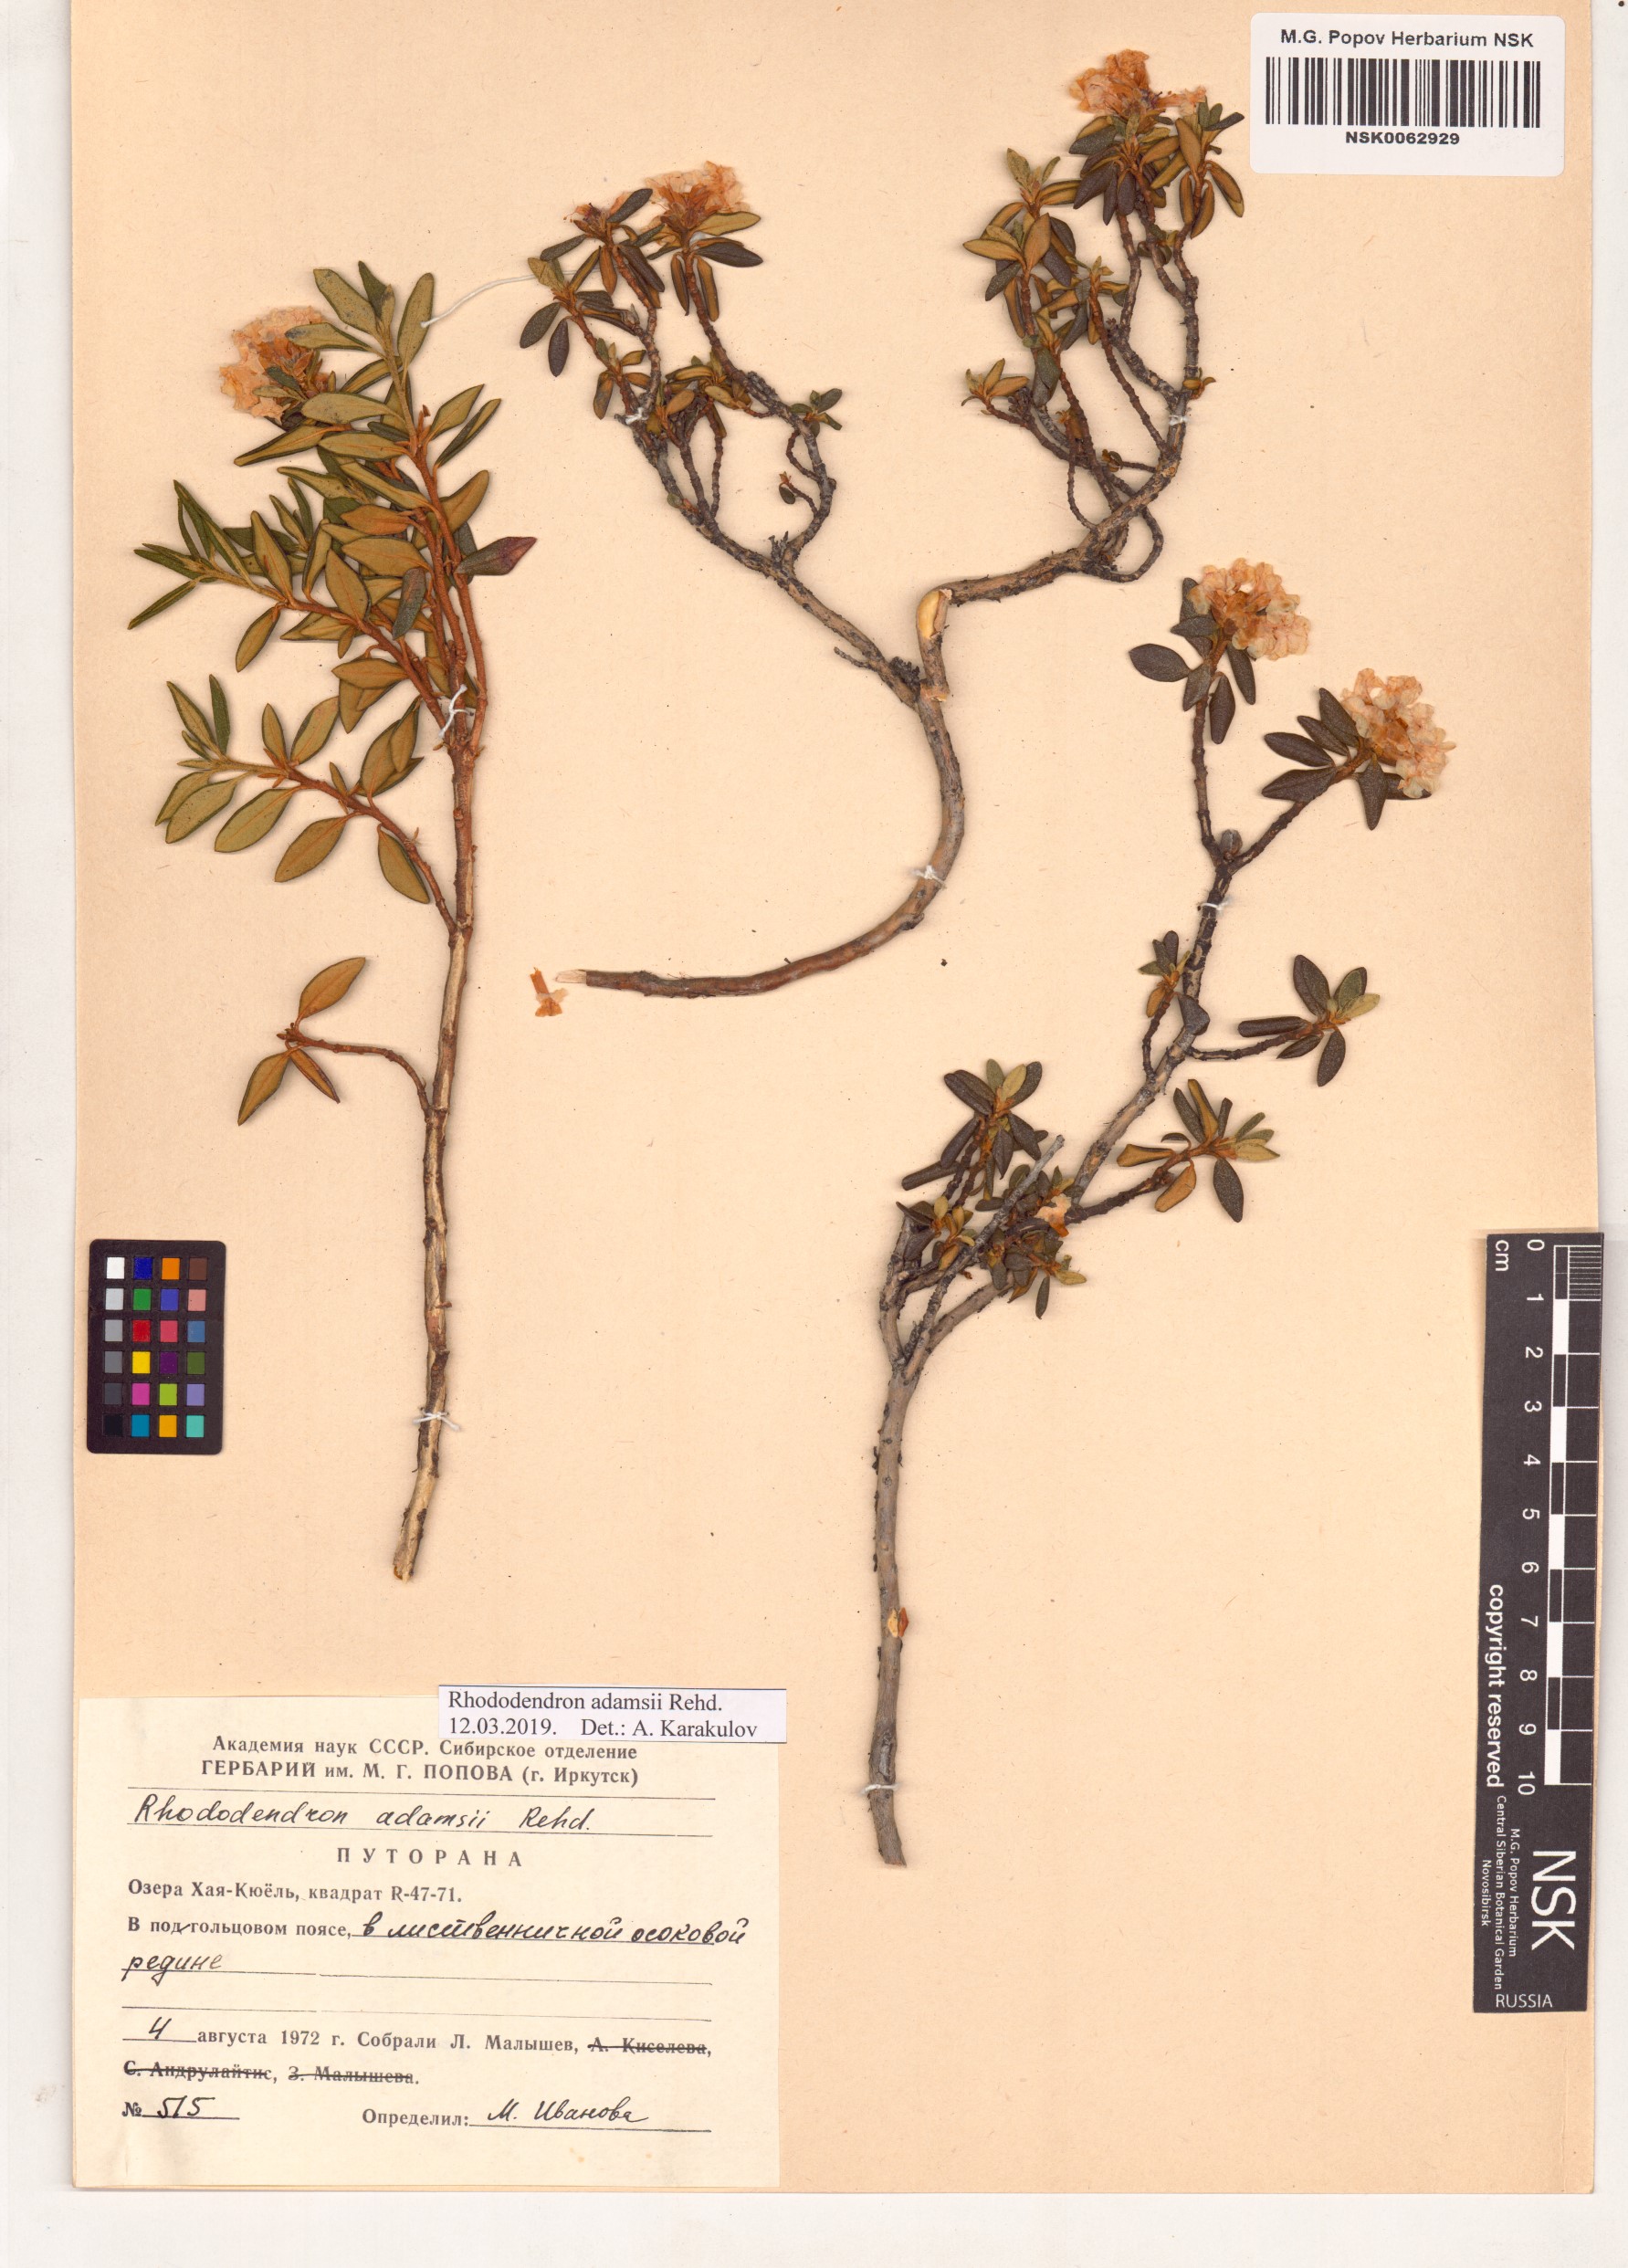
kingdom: Plantae
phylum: Tracheophyta
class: Magnoliopsida
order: Ericales
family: Ericaceae
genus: Rhododendron
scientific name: Rhododendron adamsii
